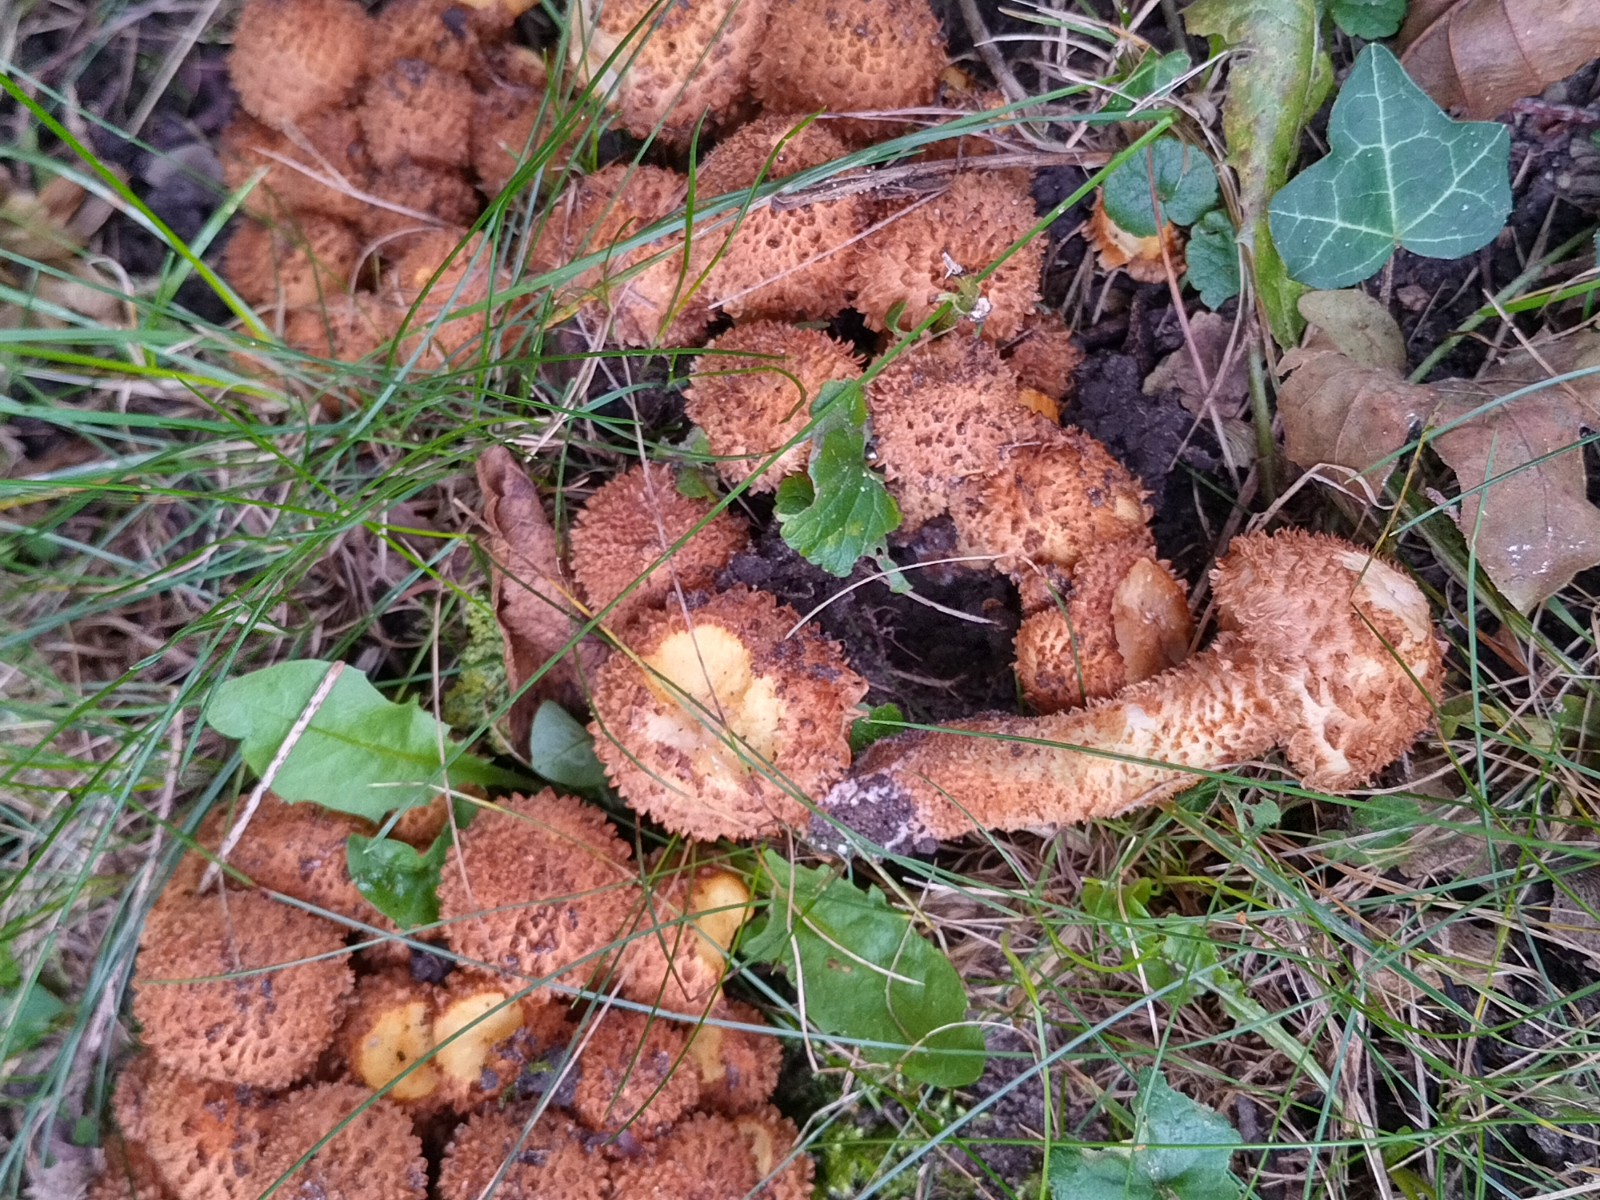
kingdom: Fungi
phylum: Basidiomycota
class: Agaricomycetes
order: Agaricales
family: Strophariaceae
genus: Pholiota
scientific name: Pholiota squarrosa
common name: krumskællet skælhat
